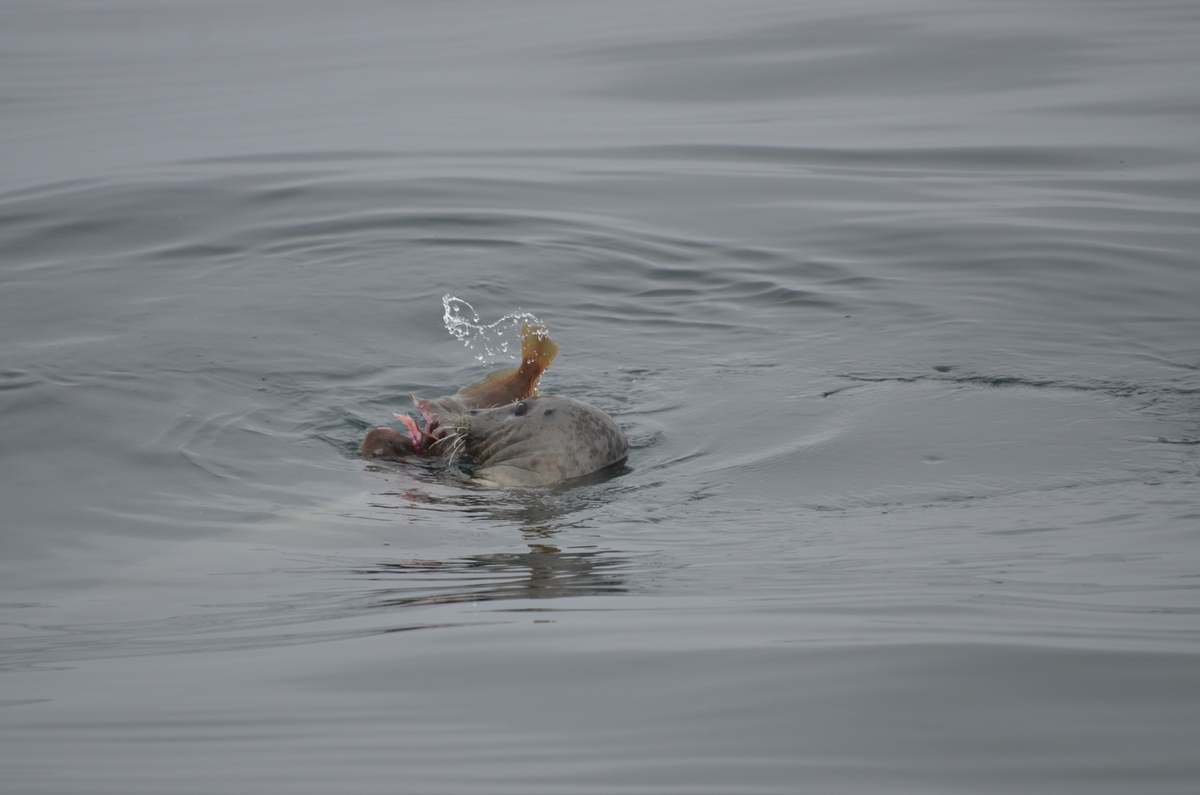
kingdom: Animalia
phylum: Chordata
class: Mammalia
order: Carnivora
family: Phocidae
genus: Phoca
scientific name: Phoca vitulina
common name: Harbor seal
